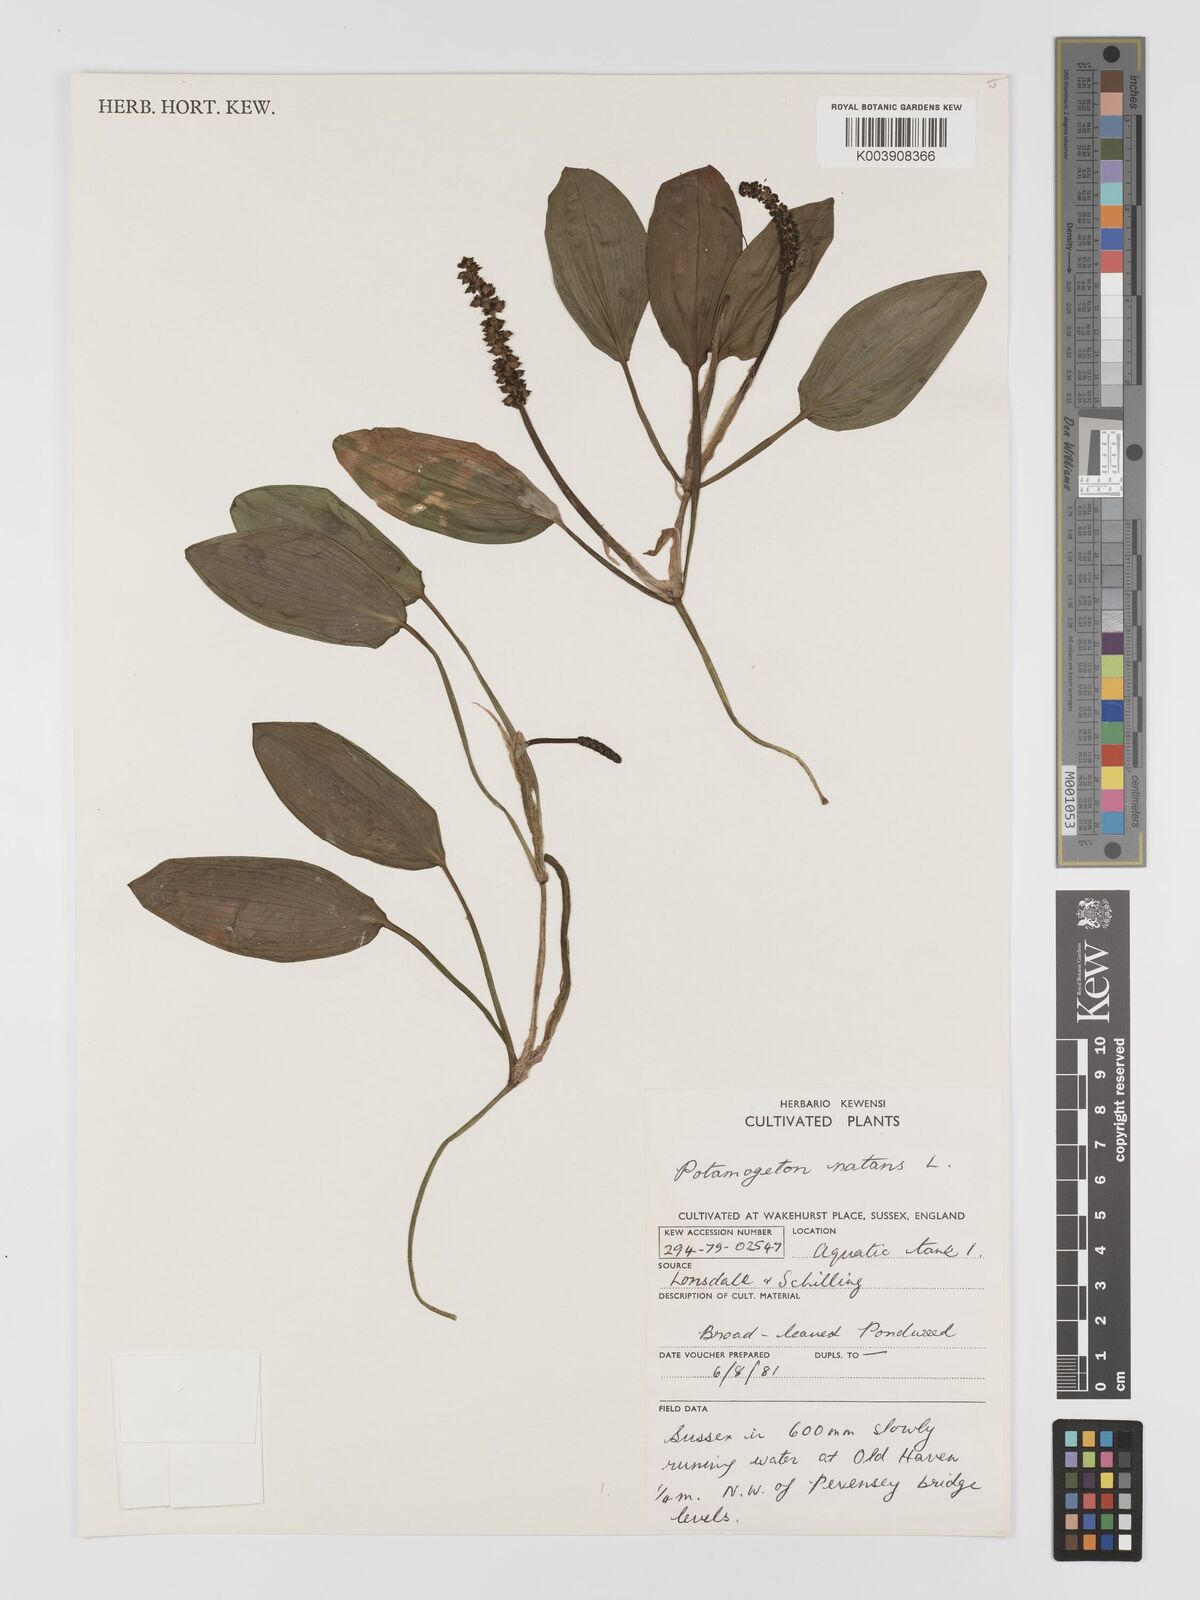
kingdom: Plantae
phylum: Tracheophyta
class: Liliopsida
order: Alismatales
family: Potamogetonaceae
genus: Potamogeton
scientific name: Potamogeton natans
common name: Broad-leaved pondweed
